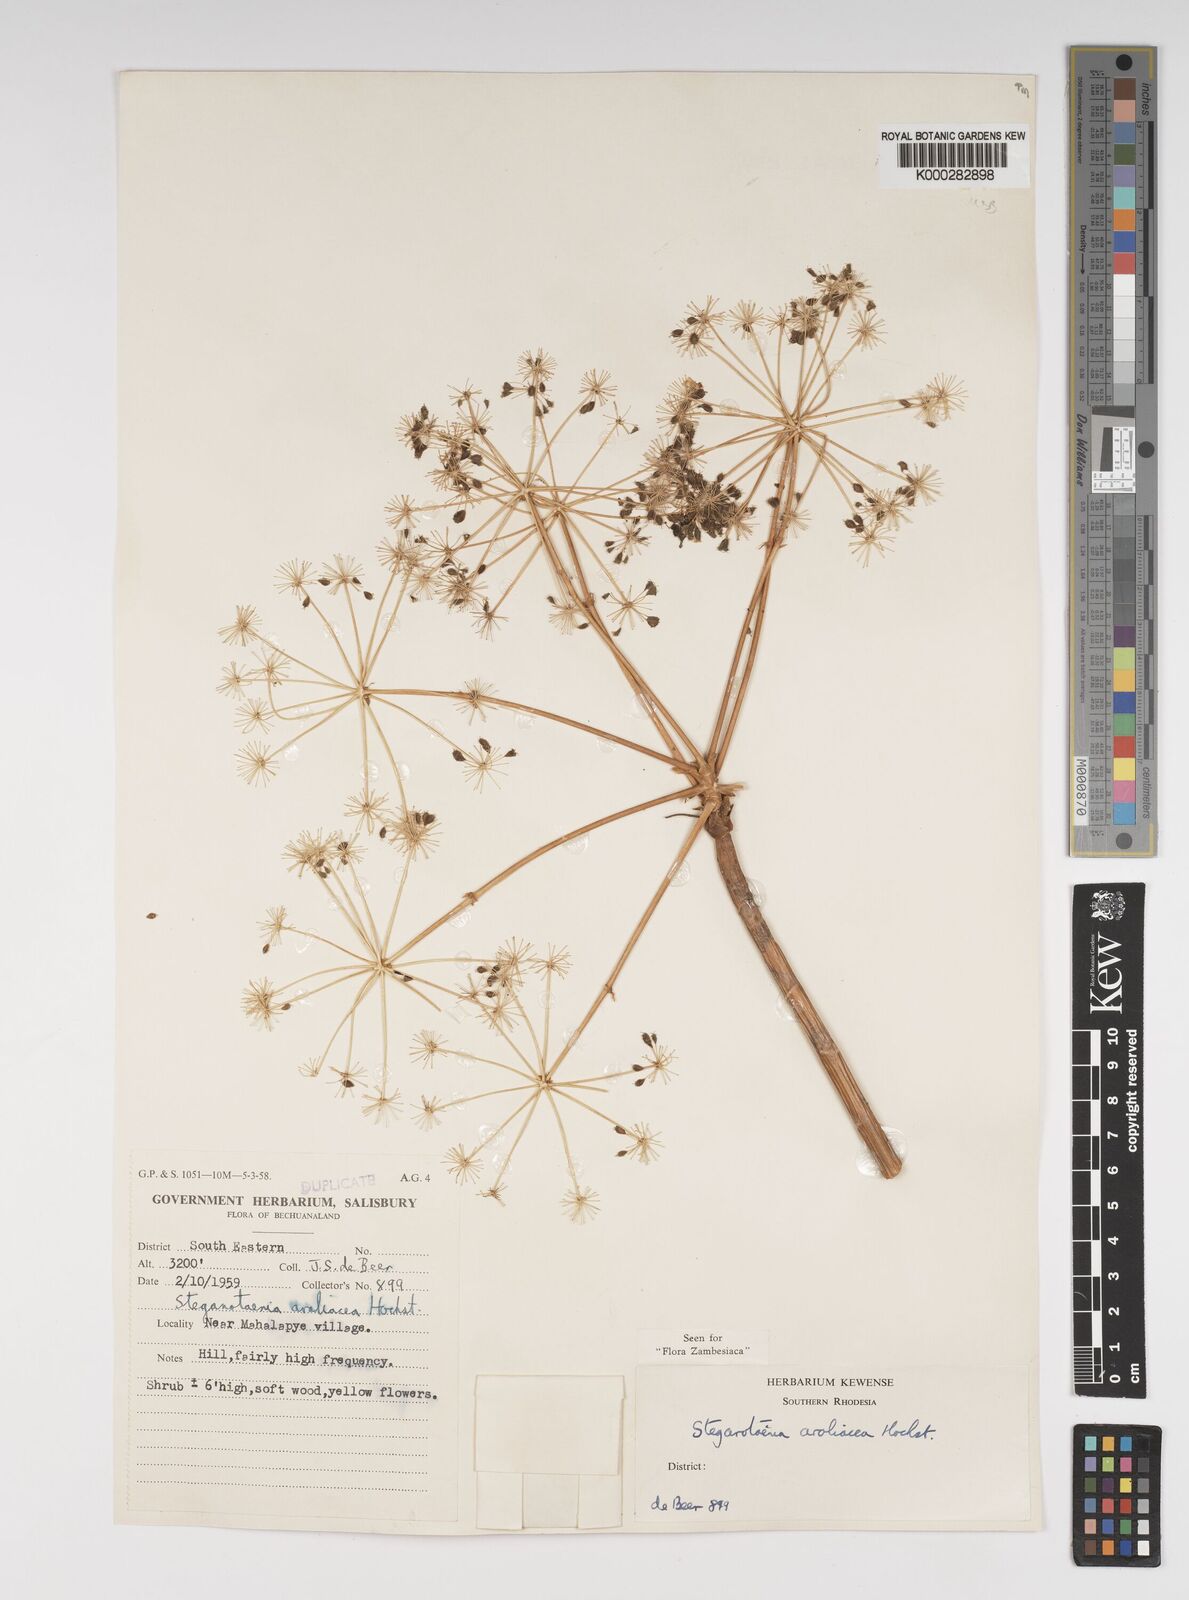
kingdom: Plantae
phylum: Tracheophyta
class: Magnoliopsida
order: Apiales
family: Apiaceae
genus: Steganotaenia
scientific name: Steganotaenia araliacea
